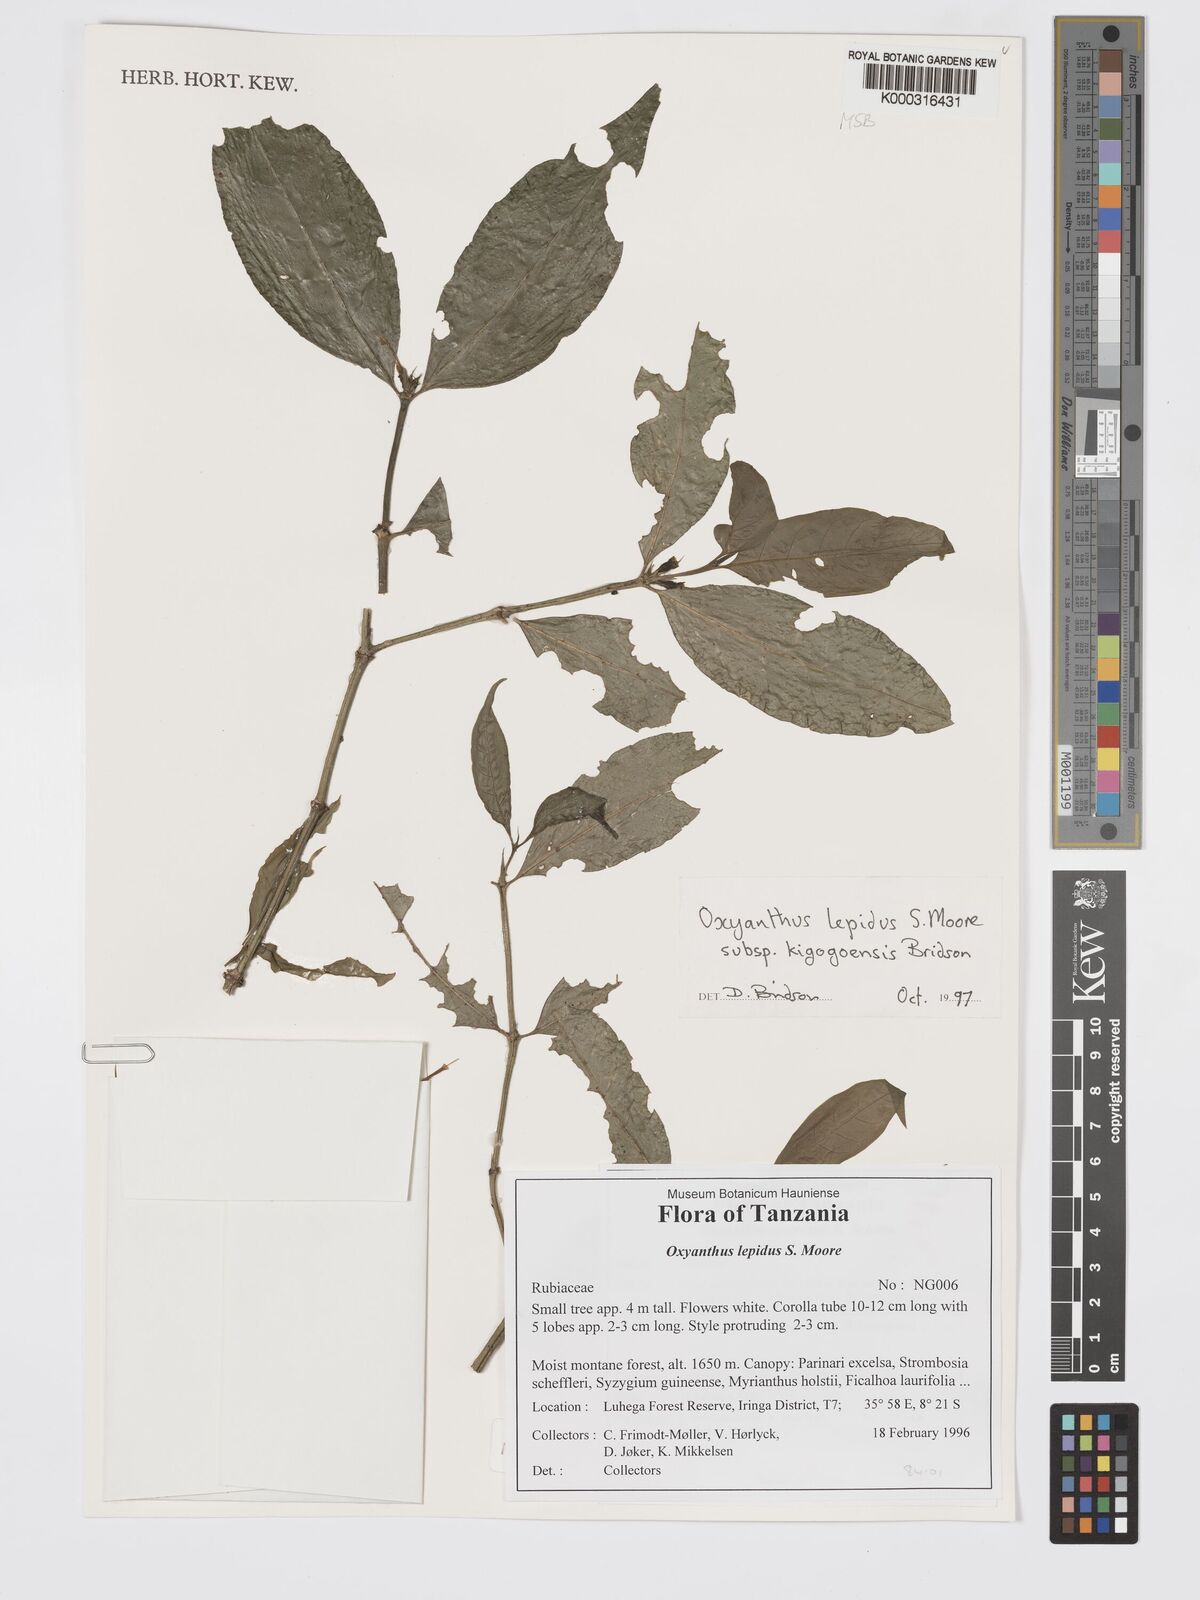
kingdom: Plantae
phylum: Tracheophyta
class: Magnoliopsida
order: Gentianales
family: Rubiaceae
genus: Oxyanthus
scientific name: Oxyanthus lepidus
